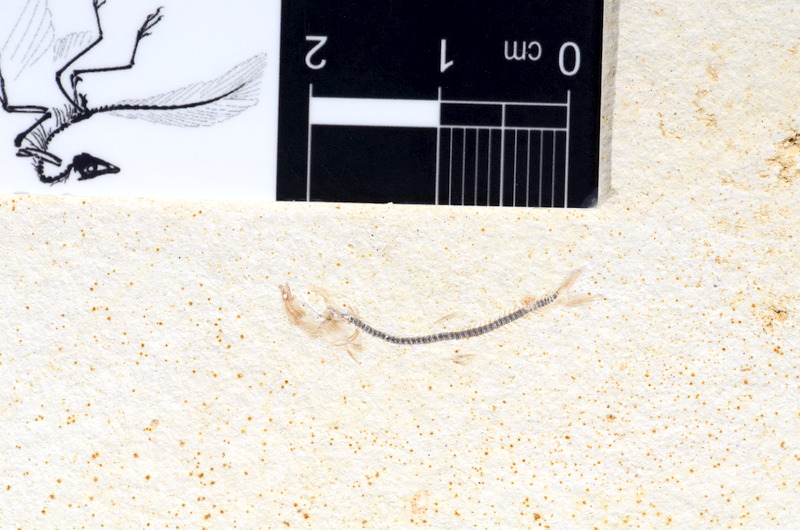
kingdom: Animalia
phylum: Chordata
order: Salmoniformes
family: Orthogonikleithridae
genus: Orthogonikleithrus
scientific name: Orthogonikleithrus hoelli
